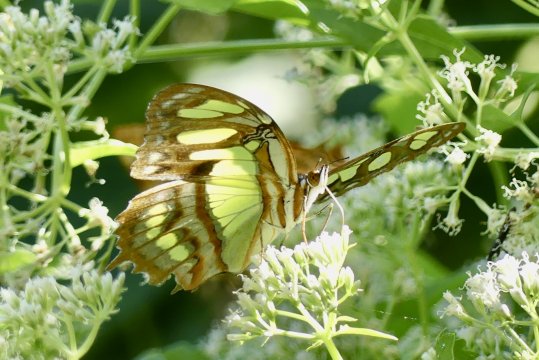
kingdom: Animalia
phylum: Arthropoda
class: Insecta
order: Lepidoptera
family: Nymphalidae
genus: Siproeta
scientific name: Siproeta stelenes
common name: Malachite
